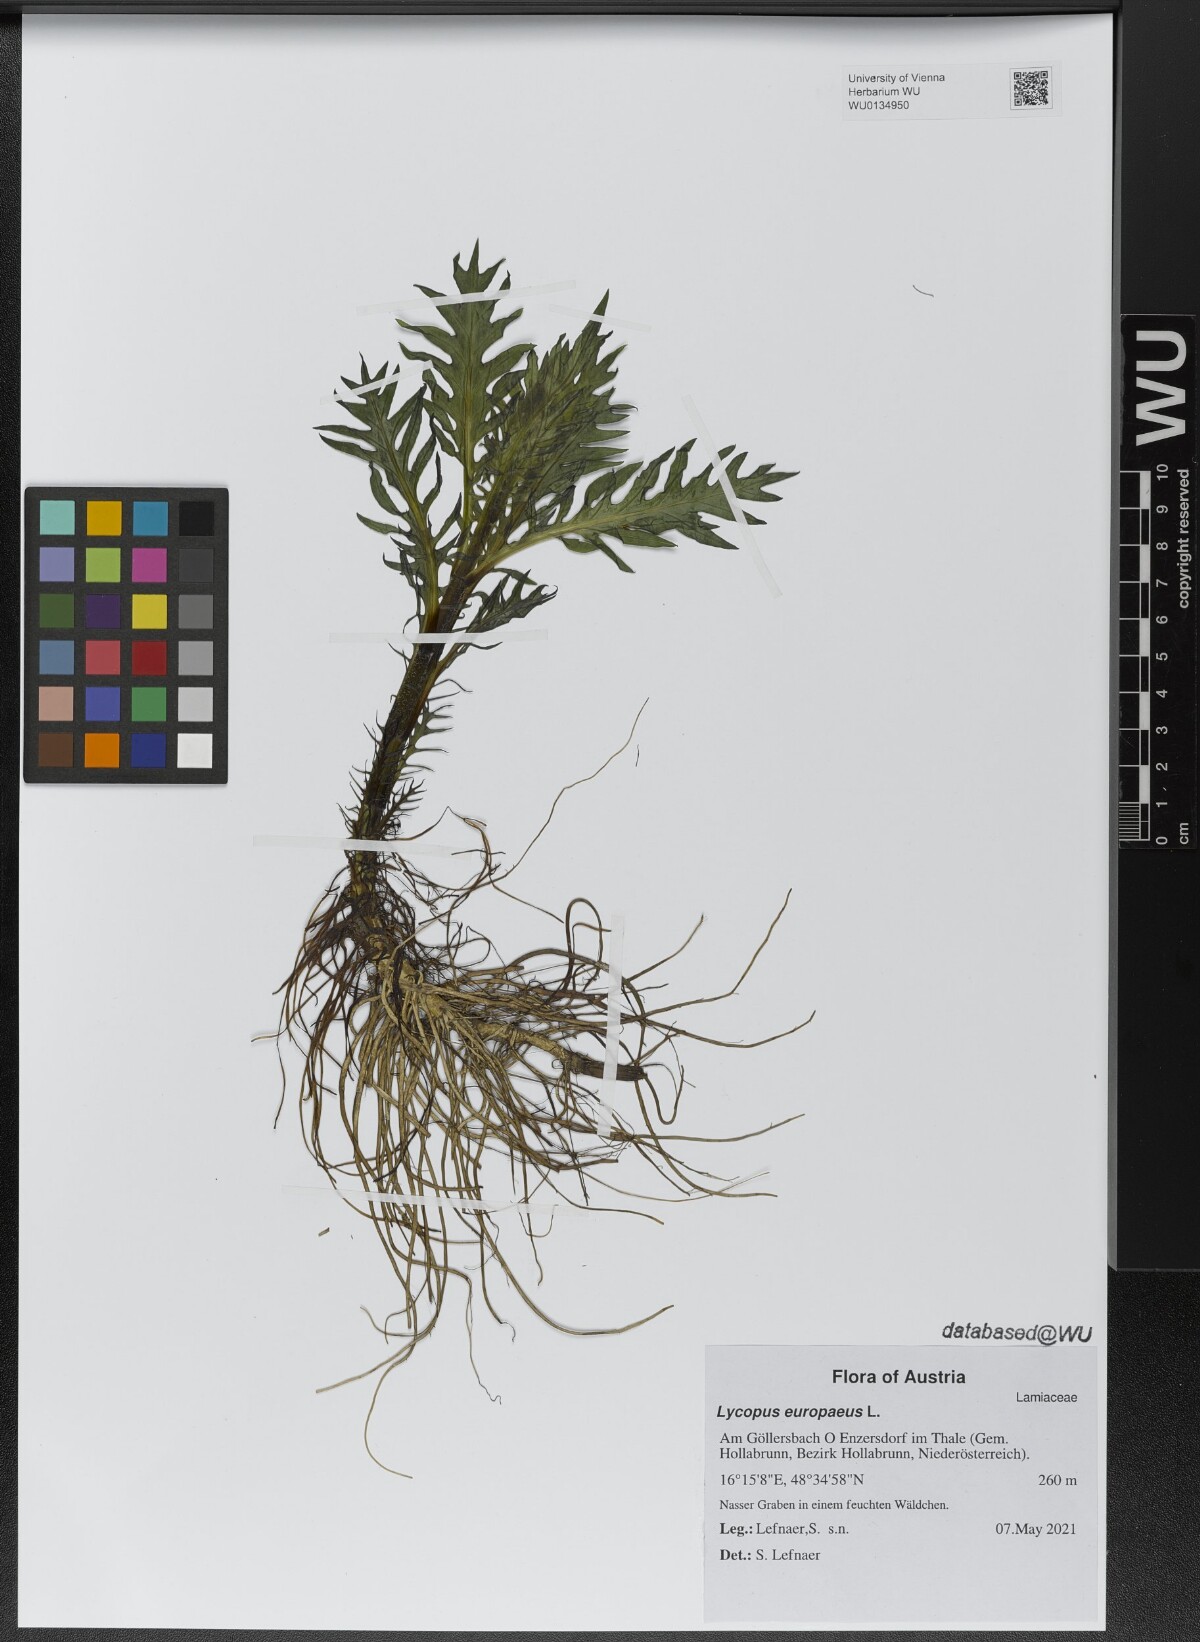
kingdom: Plantae
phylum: Tracheophyta
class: Magnoliopsida
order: Lamiales
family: Lamiaceae
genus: Lycopus
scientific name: Lycopus europaeus
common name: European bugleweed
